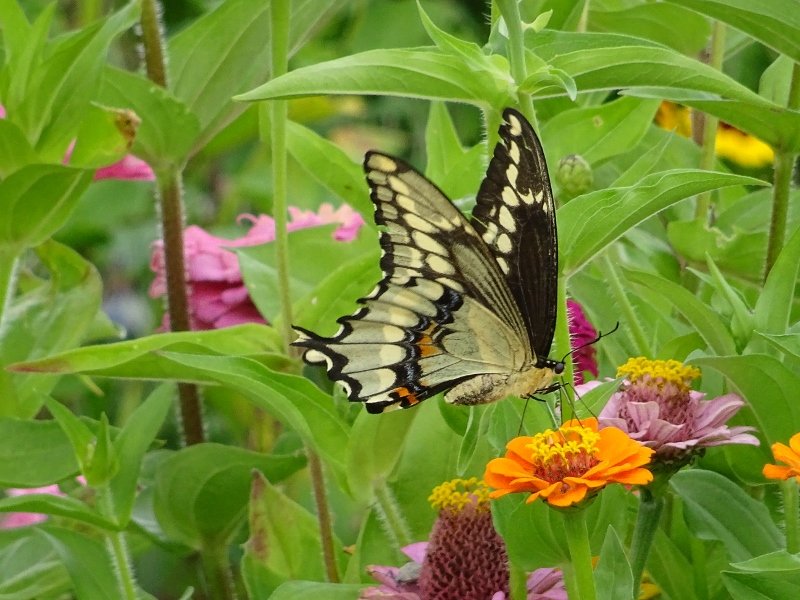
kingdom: Animalia
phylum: Arthropoda
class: Insecta
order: Lepidoptera
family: Papilionidae
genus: Papilio
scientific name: Papilio cresphontes
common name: Eastern Giant Swallowtail
